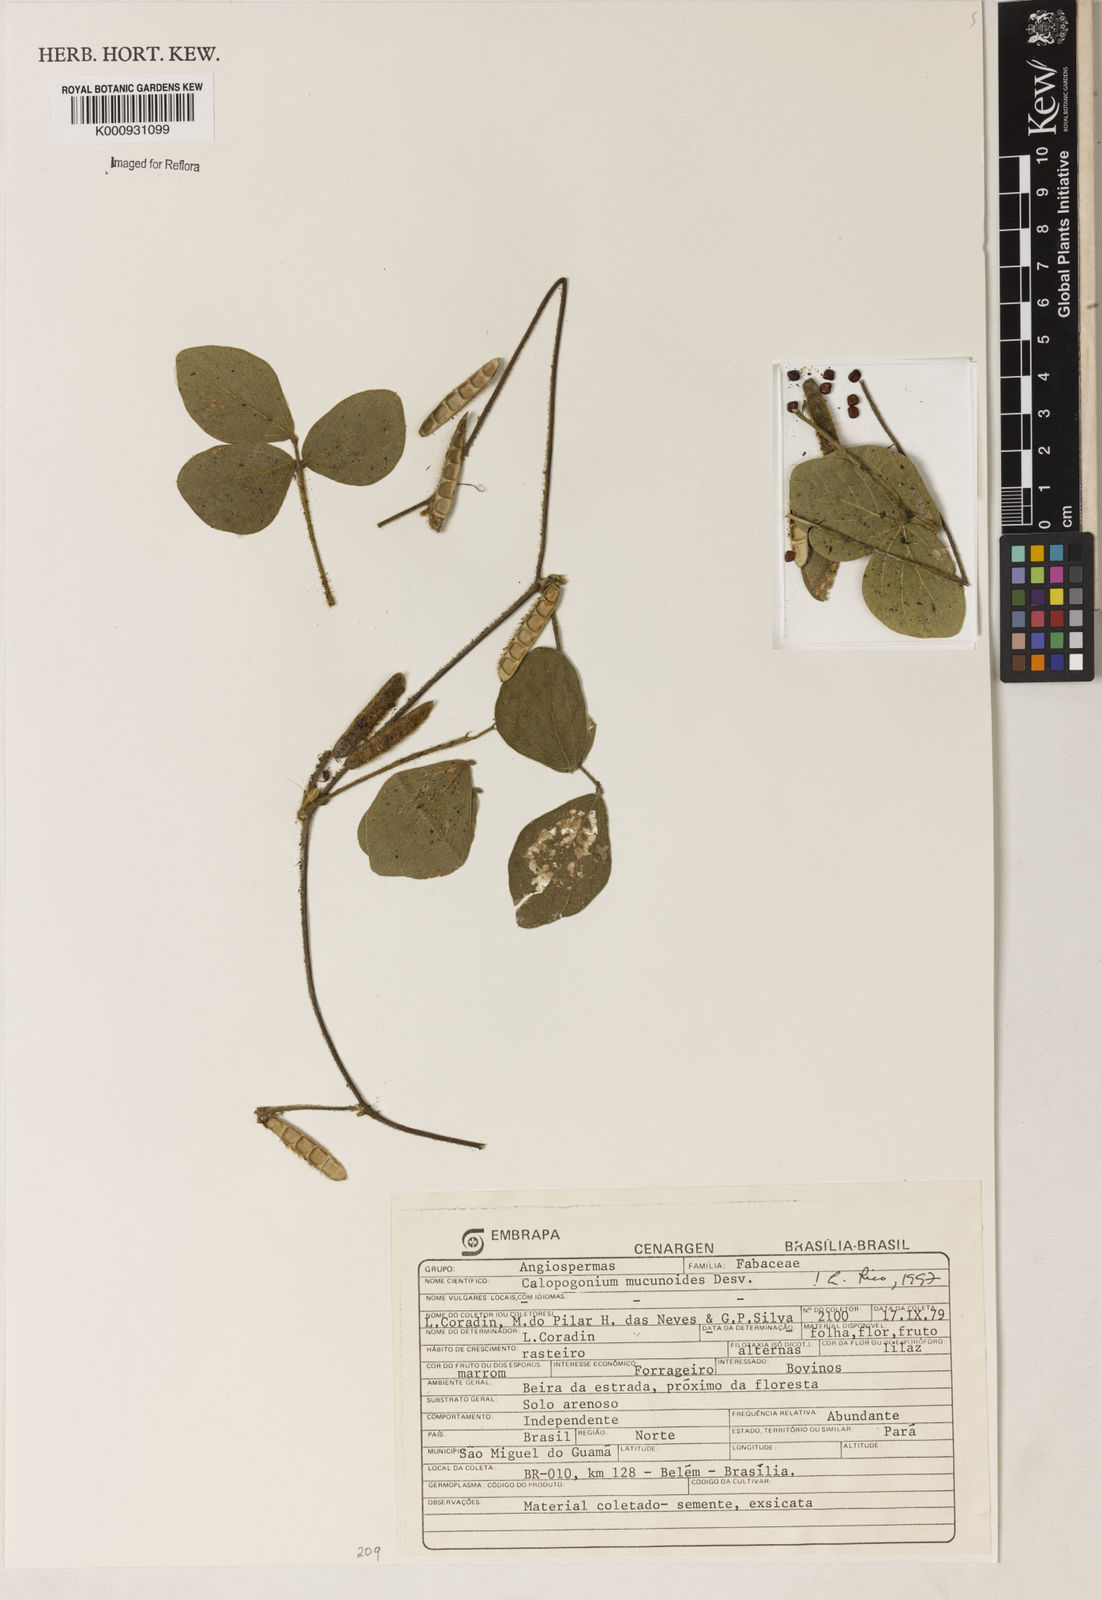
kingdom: Plantae
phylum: Tracheophyta
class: Magnoliopsida
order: Fabales
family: Fabaceae
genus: Calopogonium
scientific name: Calopogonium mucunoides
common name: Calopo
